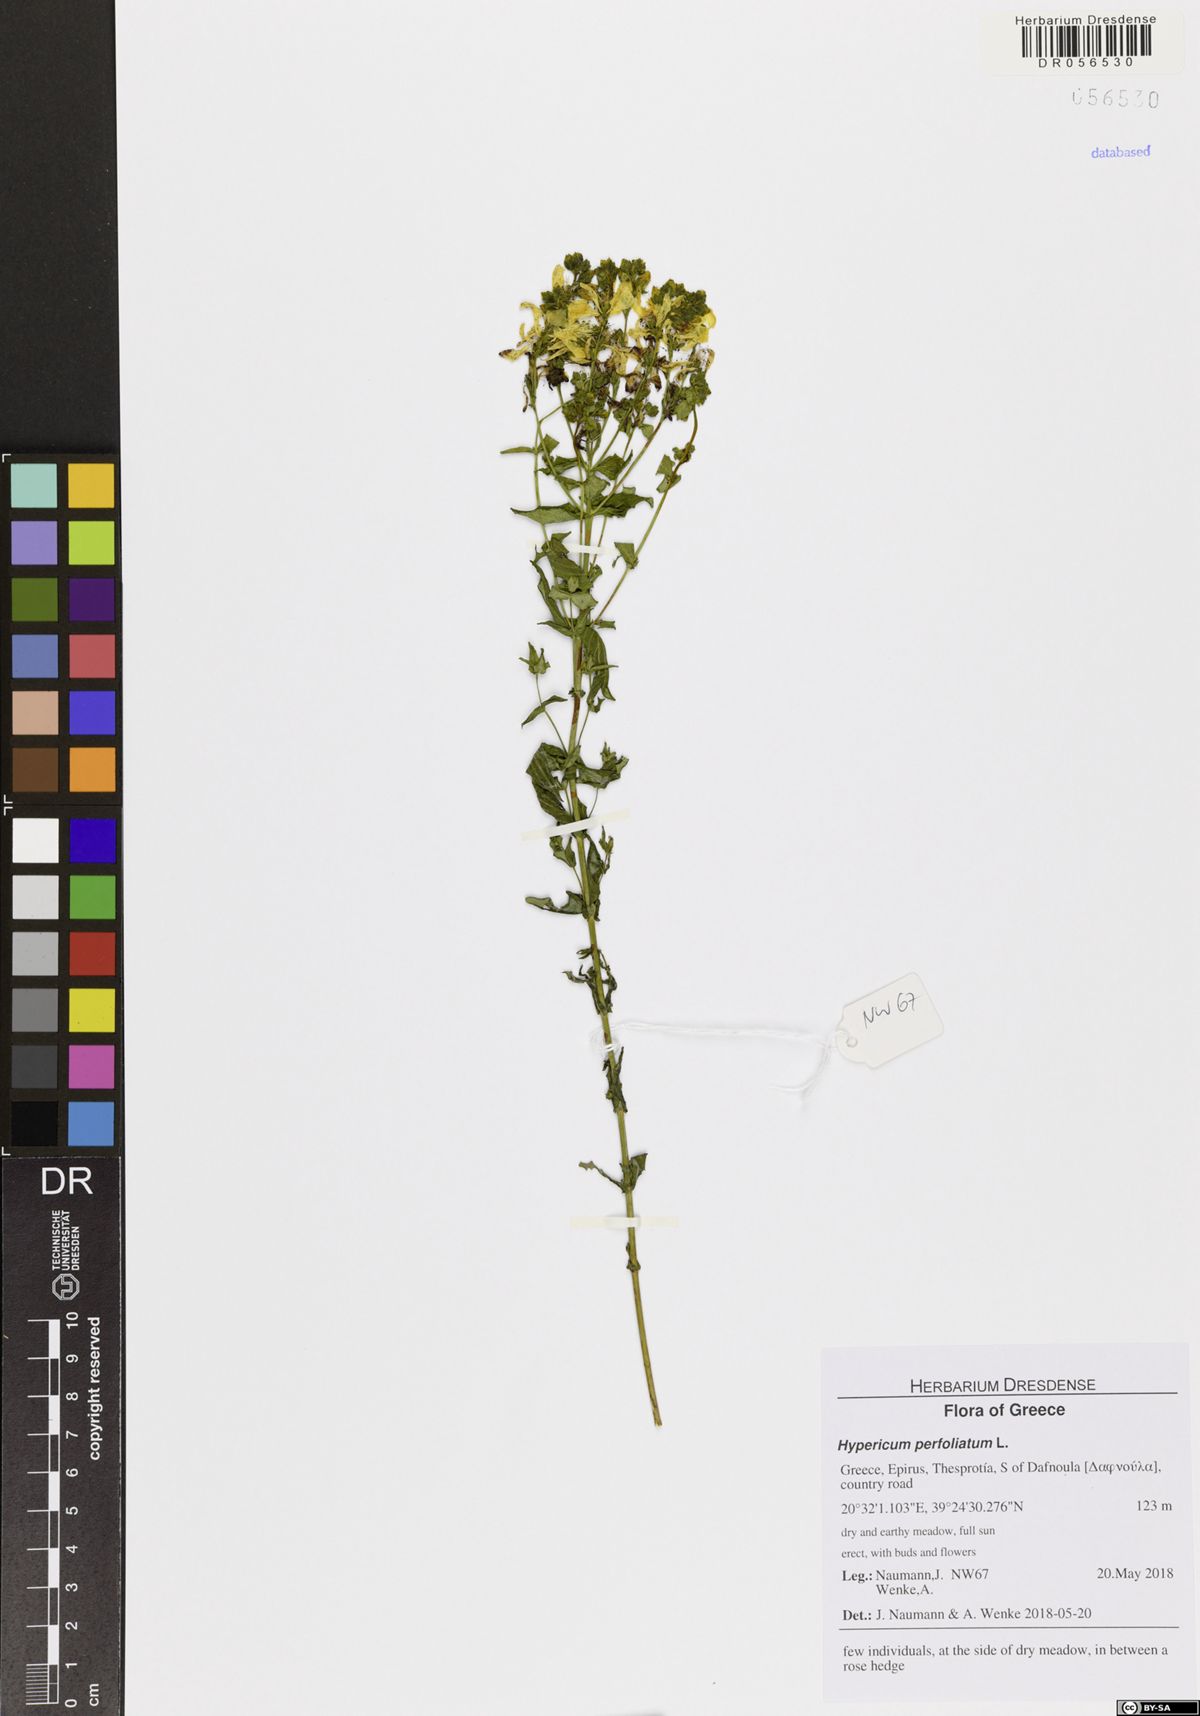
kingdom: Plantae
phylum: Tracheophyta
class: Magnoliopsida
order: Malpighiales
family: Hypericaceae
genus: Hypericum
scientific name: Hypericum perfoliatum
